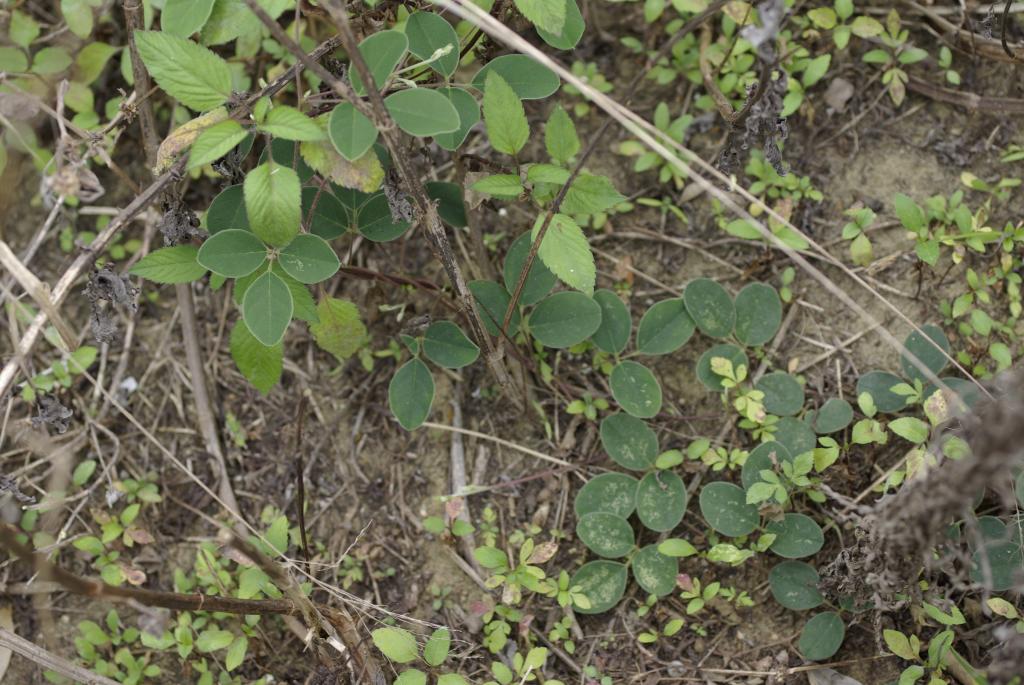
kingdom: Plantae
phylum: Tracheophyta
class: Magnoliopsida
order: Fabales
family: Fabaceae
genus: Galactia
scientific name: Galactia tashiroi
